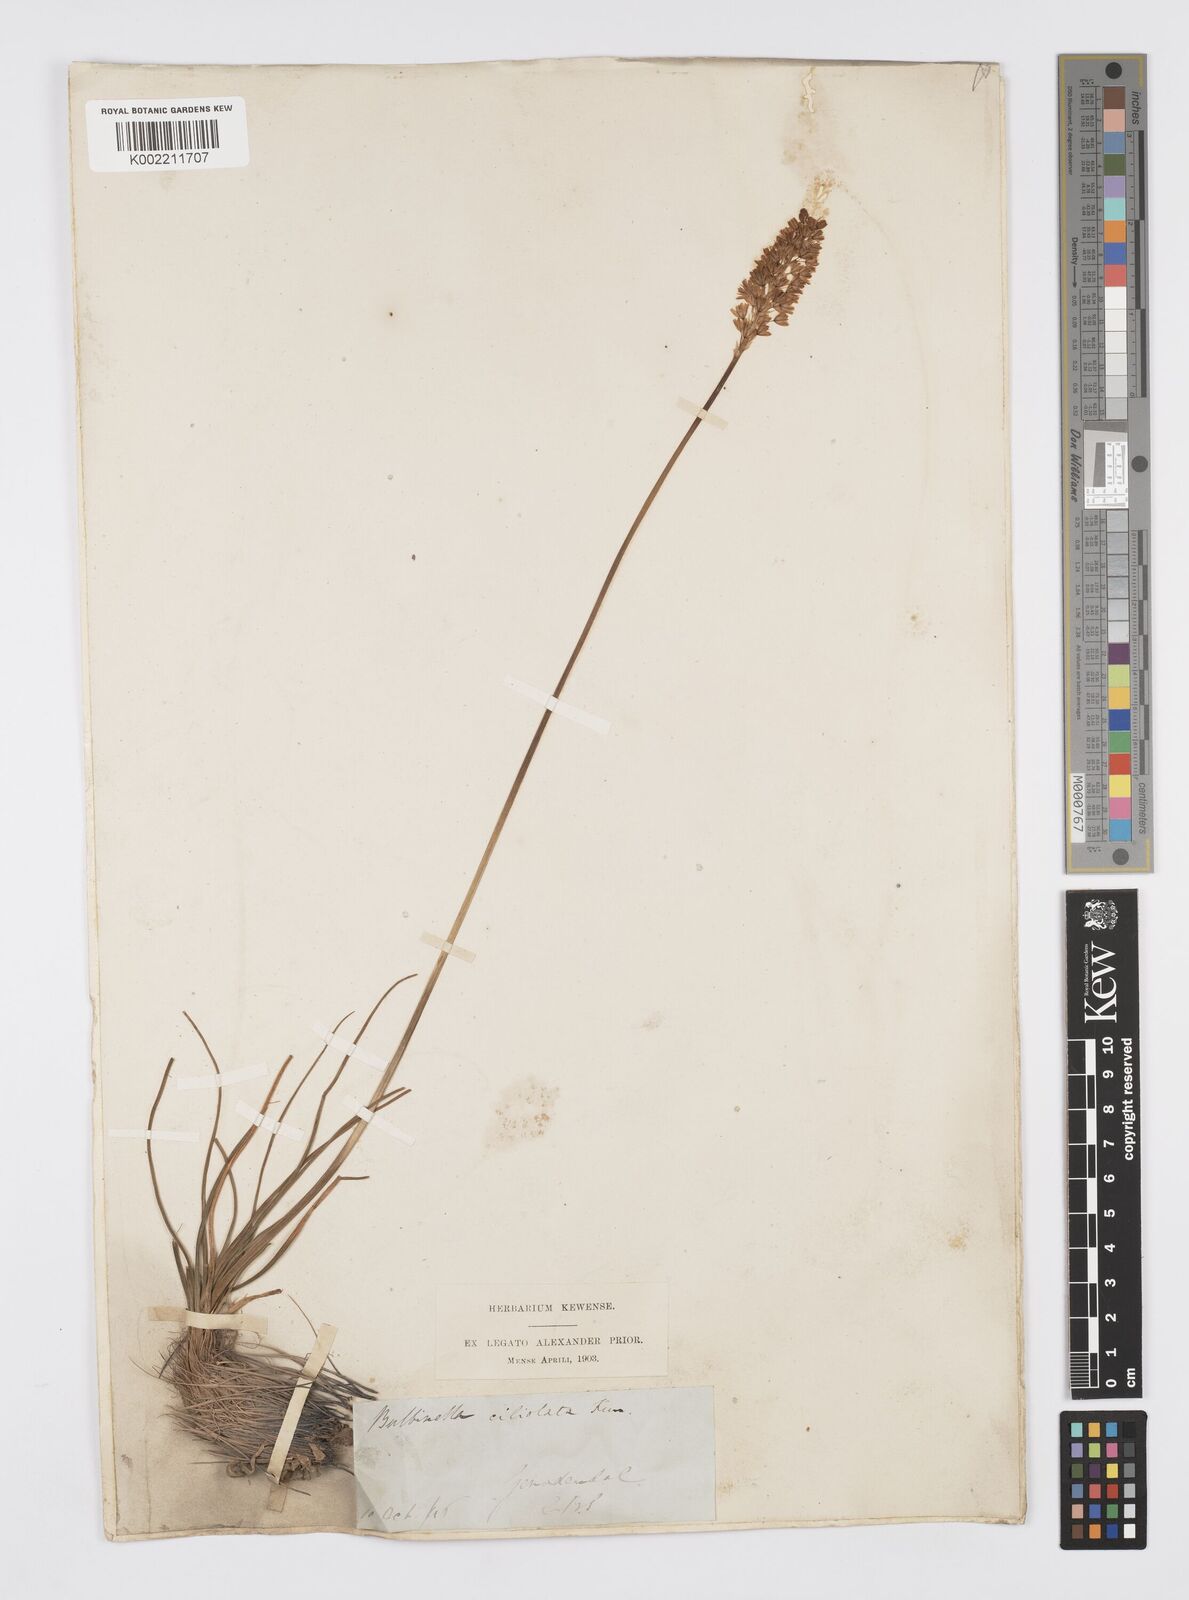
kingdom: Plantae
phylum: Tracheophyta
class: Liliopsida
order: Asparagales
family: Asphodelaceae
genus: Bulbinella
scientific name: Bulbinella ciliolata
